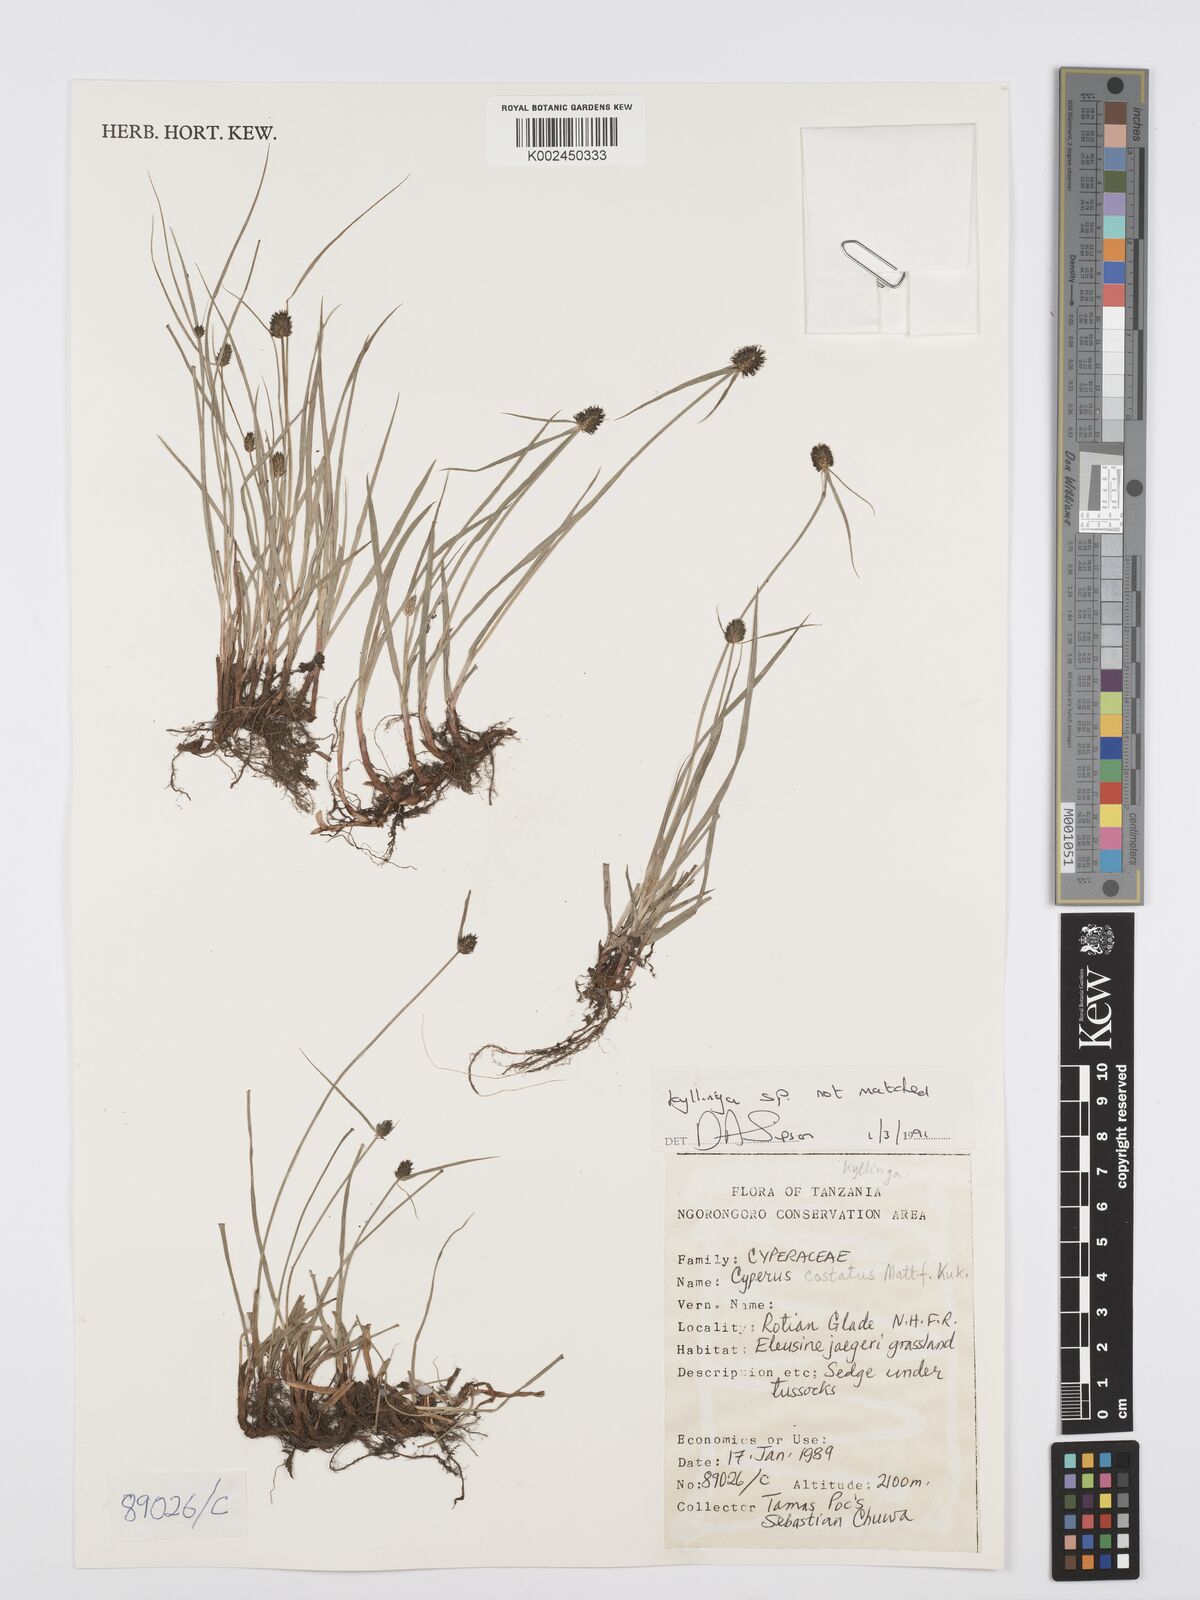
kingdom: Plantae
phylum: Tracheophyta
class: Liliopsida
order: Poales
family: Cyperaceae
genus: Cyperus
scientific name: Cyperus
